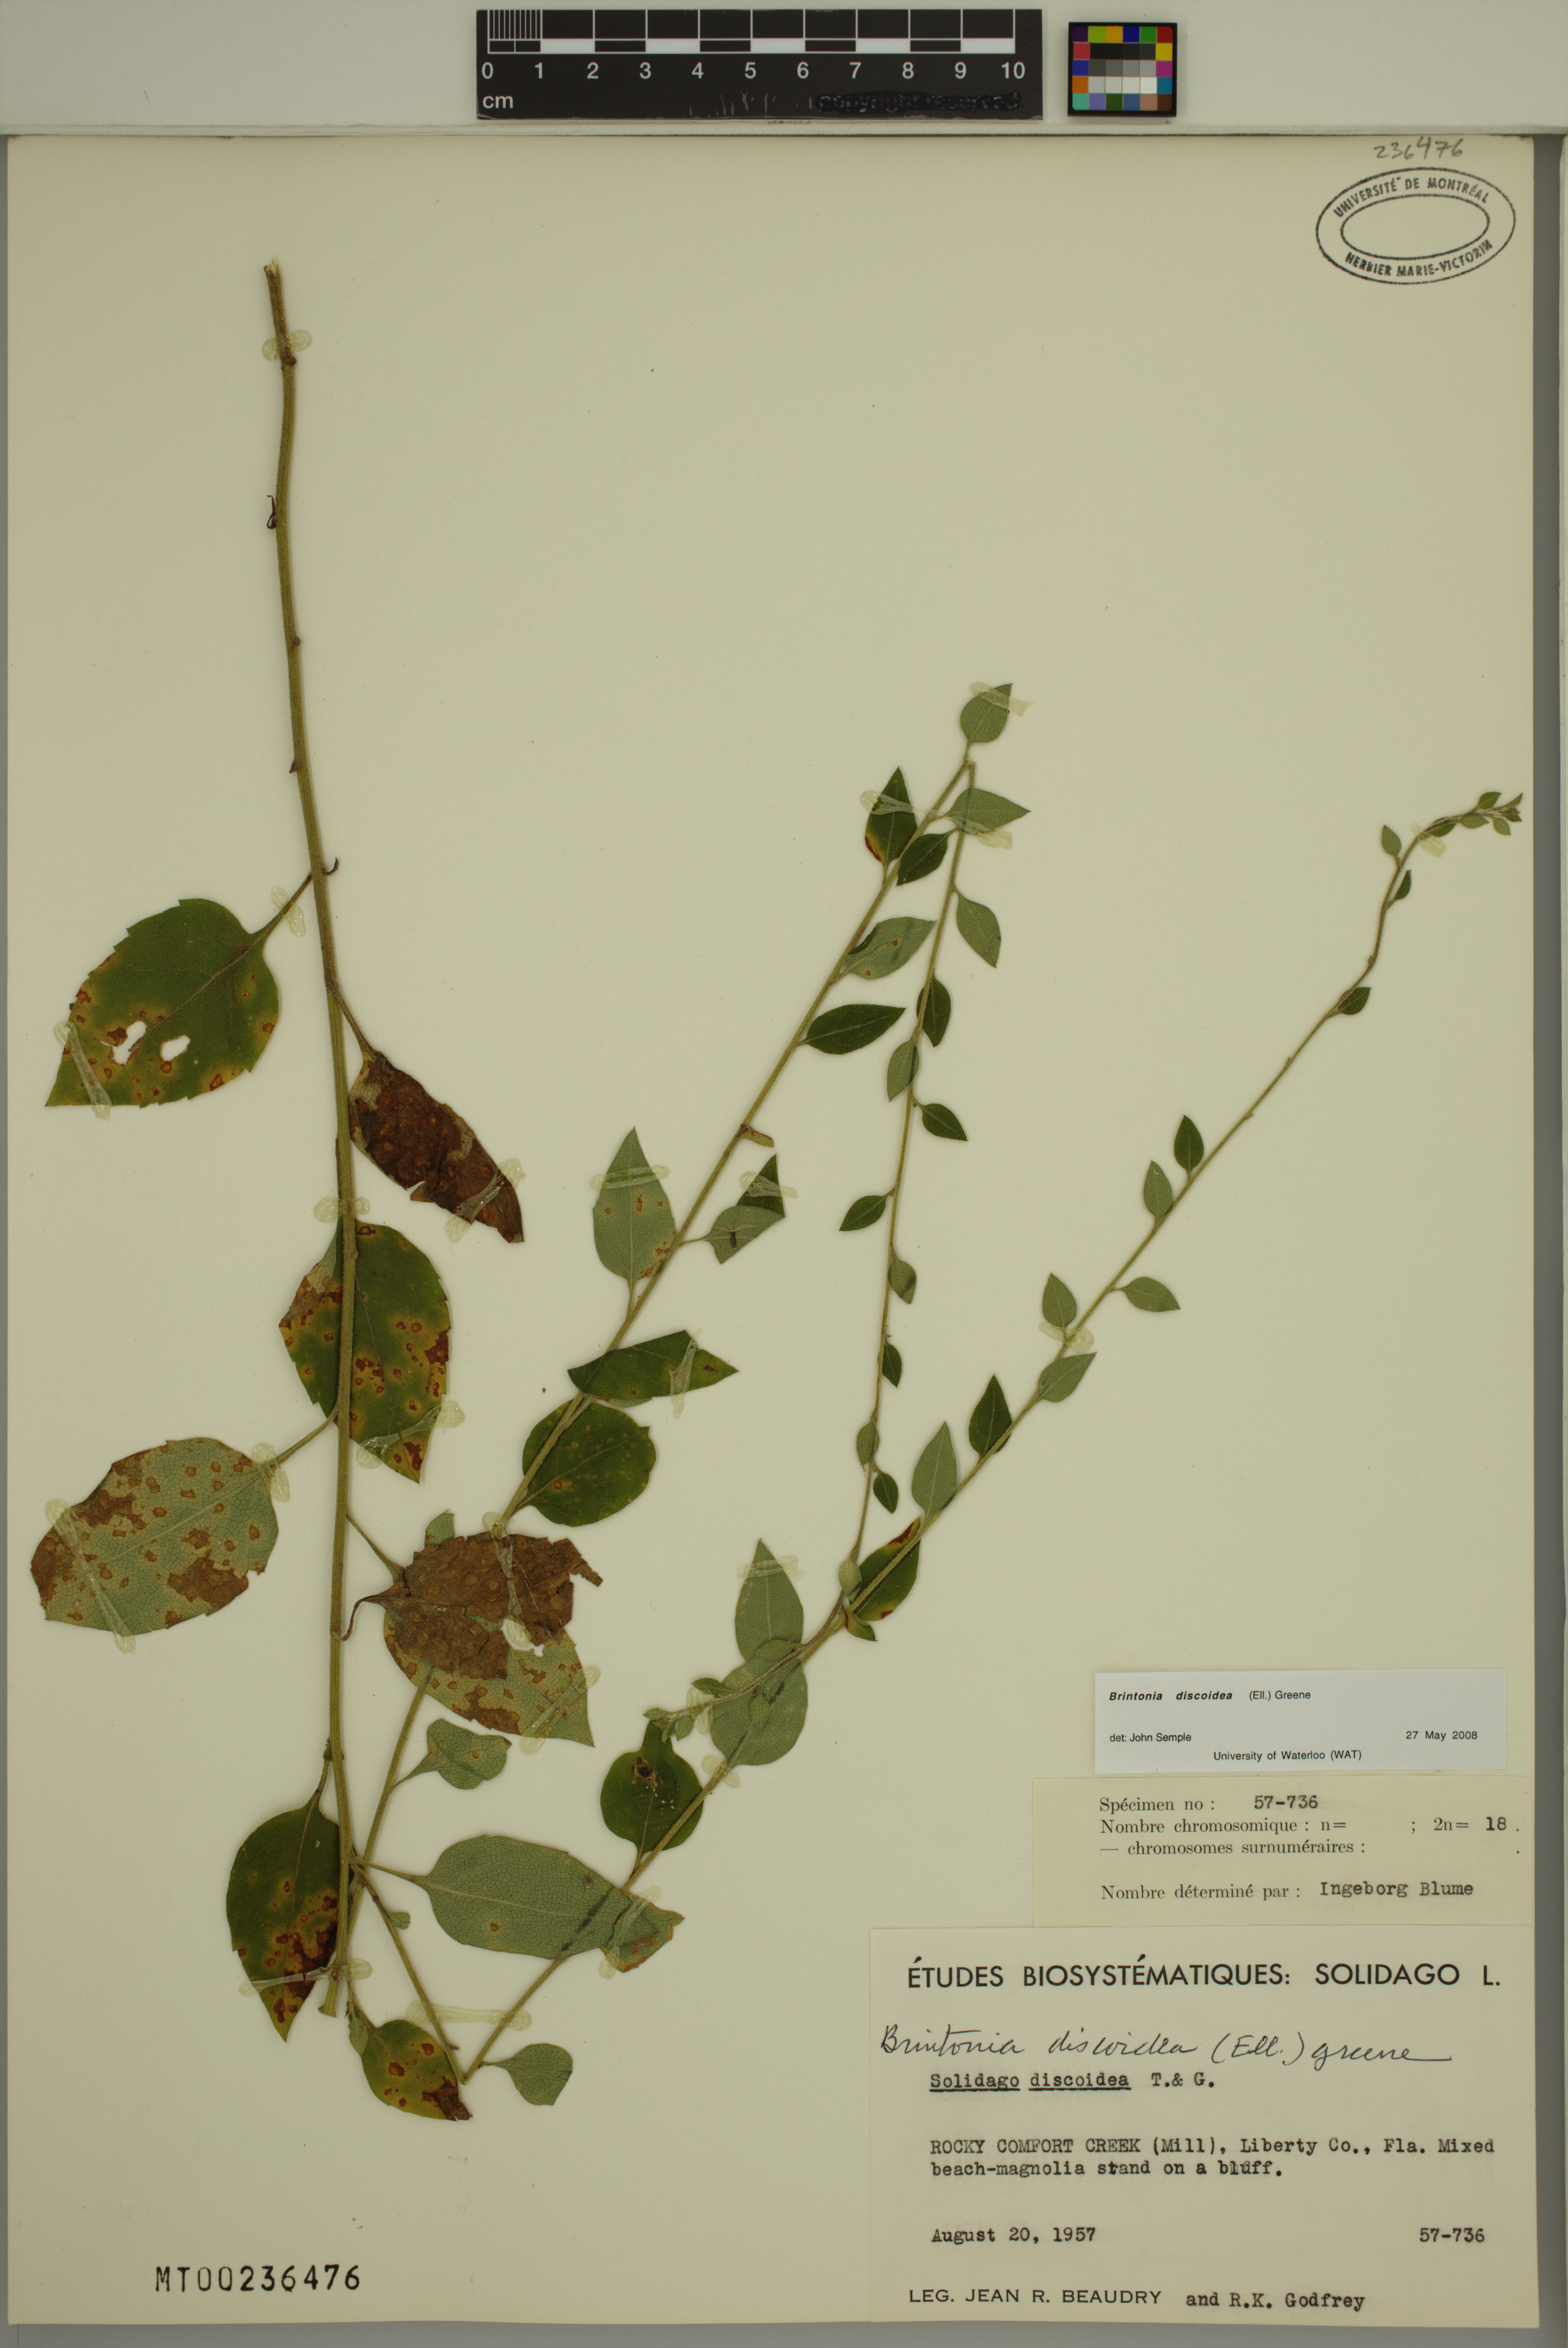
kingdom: Plantae
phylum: Tracheophyta
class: Magnoliopsida
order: Asterales
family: Asteraceae
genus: Solidago
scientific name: Solidago discoidea
